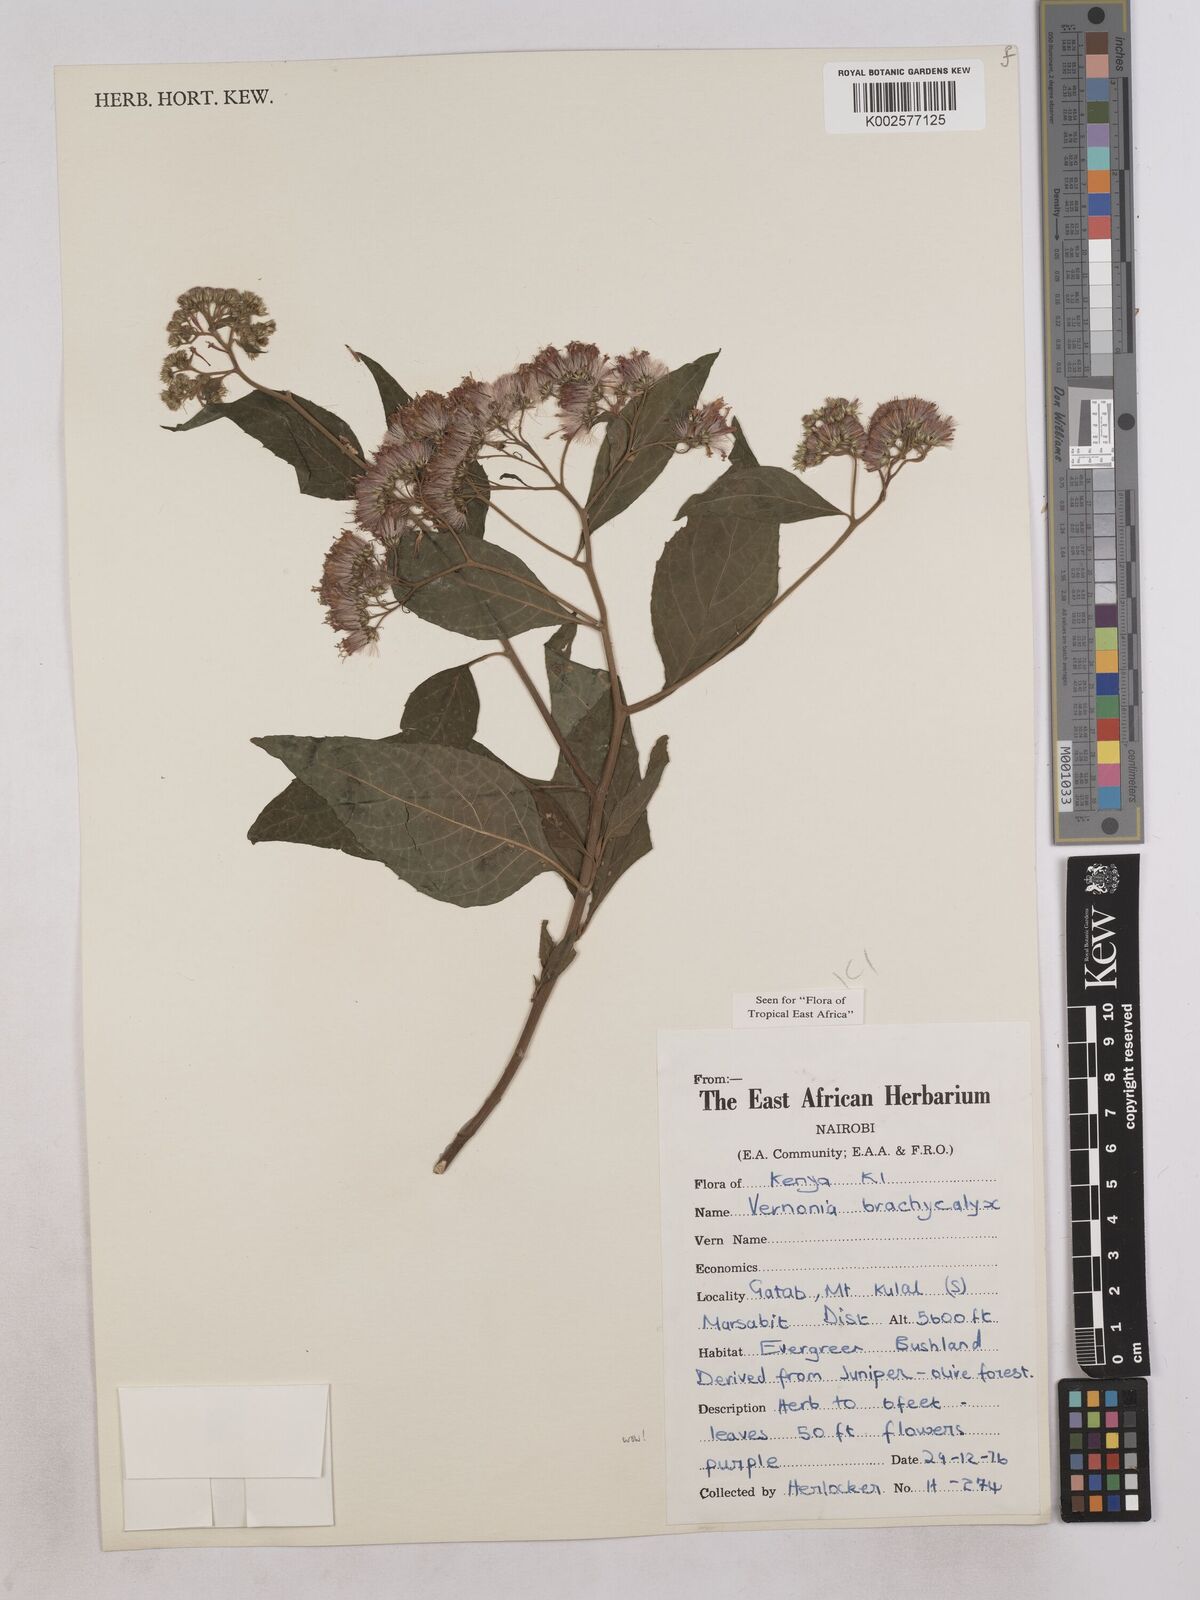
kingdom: Plantae
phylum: Tracheophyta
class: Magnoliopsida
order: Asterales
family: Asteraceae
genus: Hoffmannanthus
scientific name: Hoffmannanthus abbotianus
